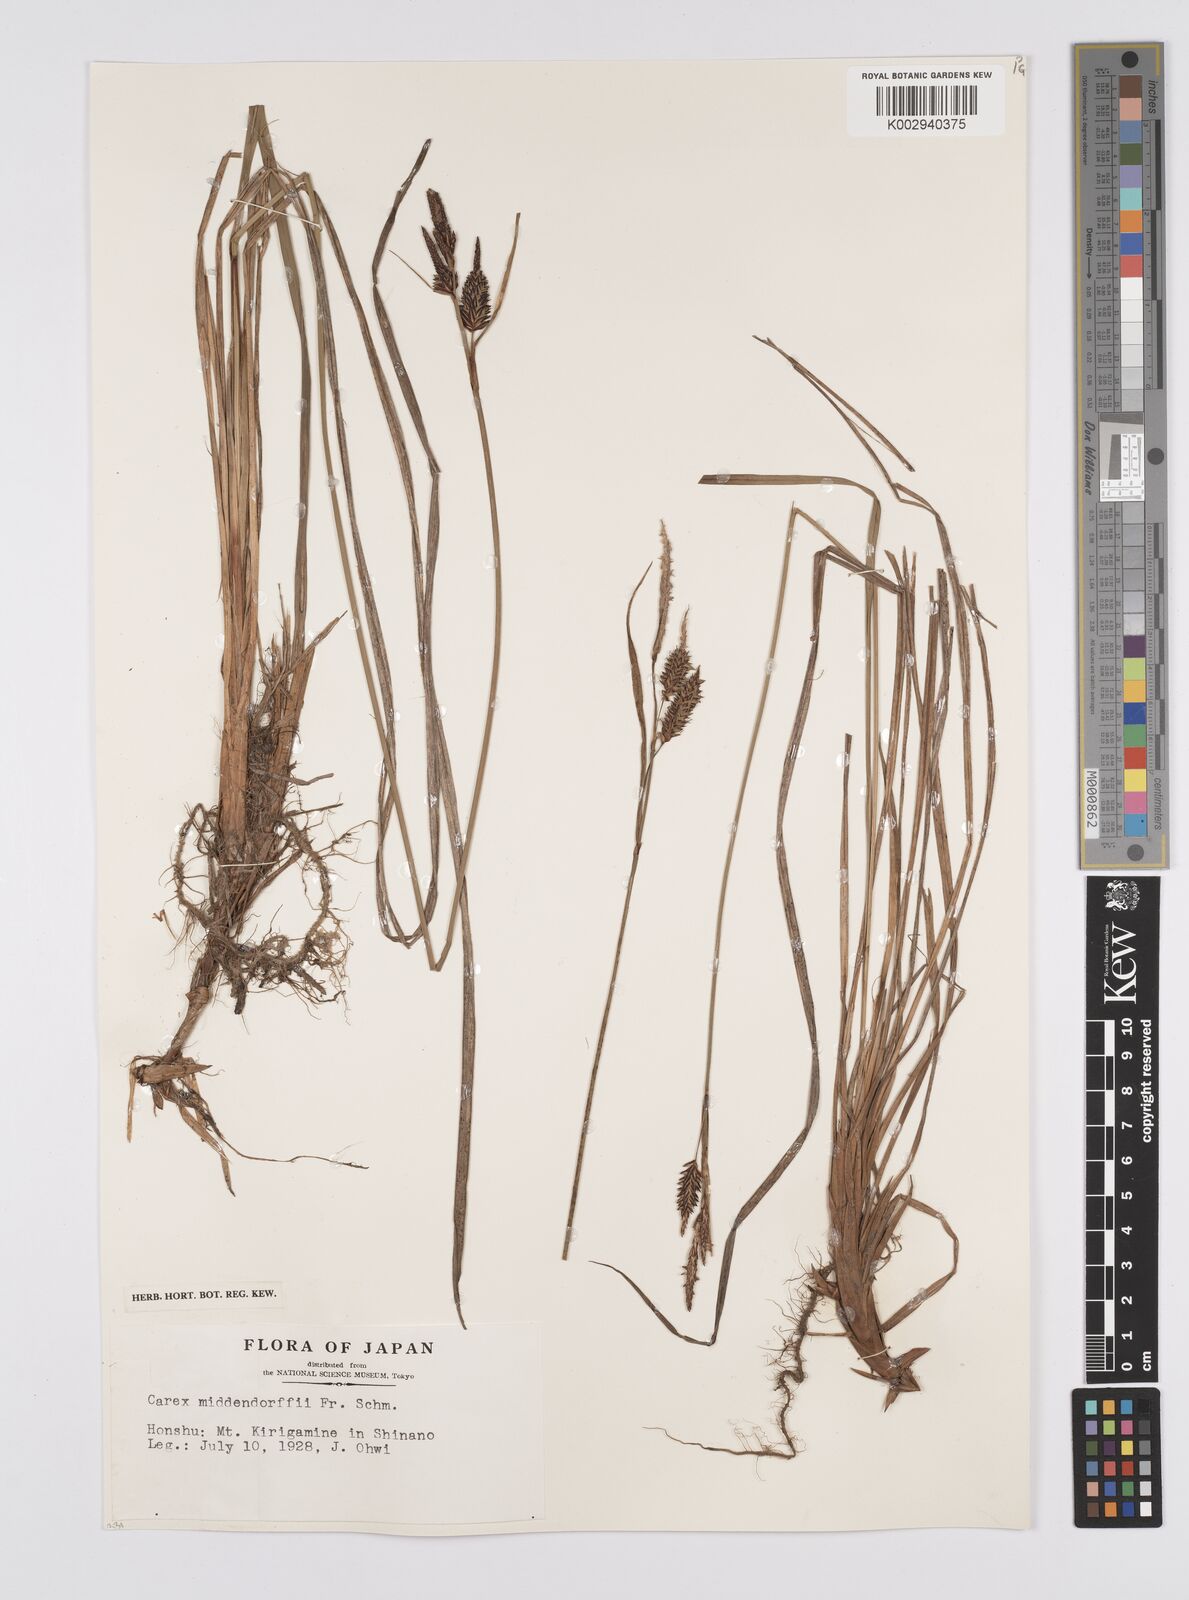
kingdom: Plantae
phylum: Tracheophyta
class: Liliopsida
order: Poales
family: Cyperaceae
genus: Carex
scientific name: Carex middendorffii
